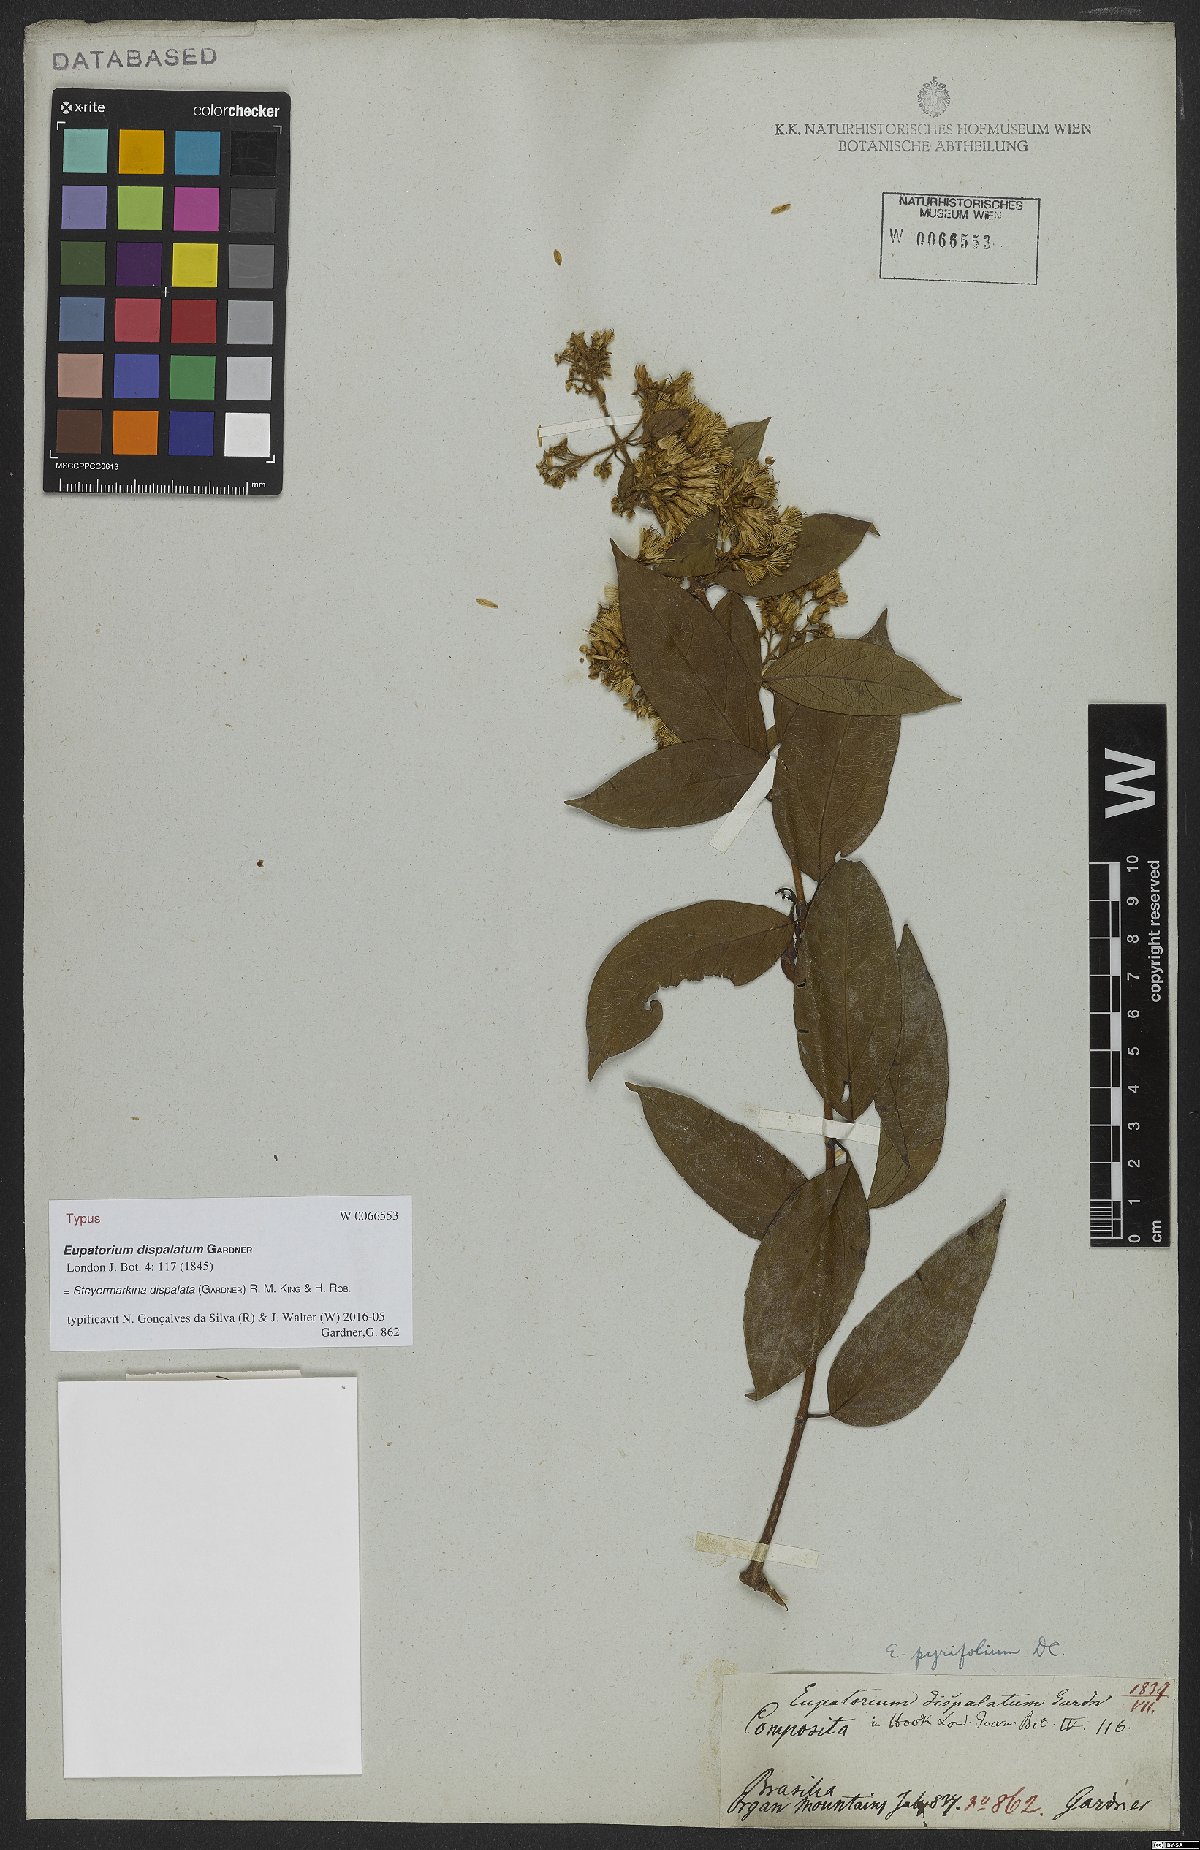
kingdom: Plantae
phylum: Tracheophyta
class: Magnoliopsida
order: Asterales
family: Asteraceae
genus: Steyermarkina
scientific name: Steyermarkina dispalata
